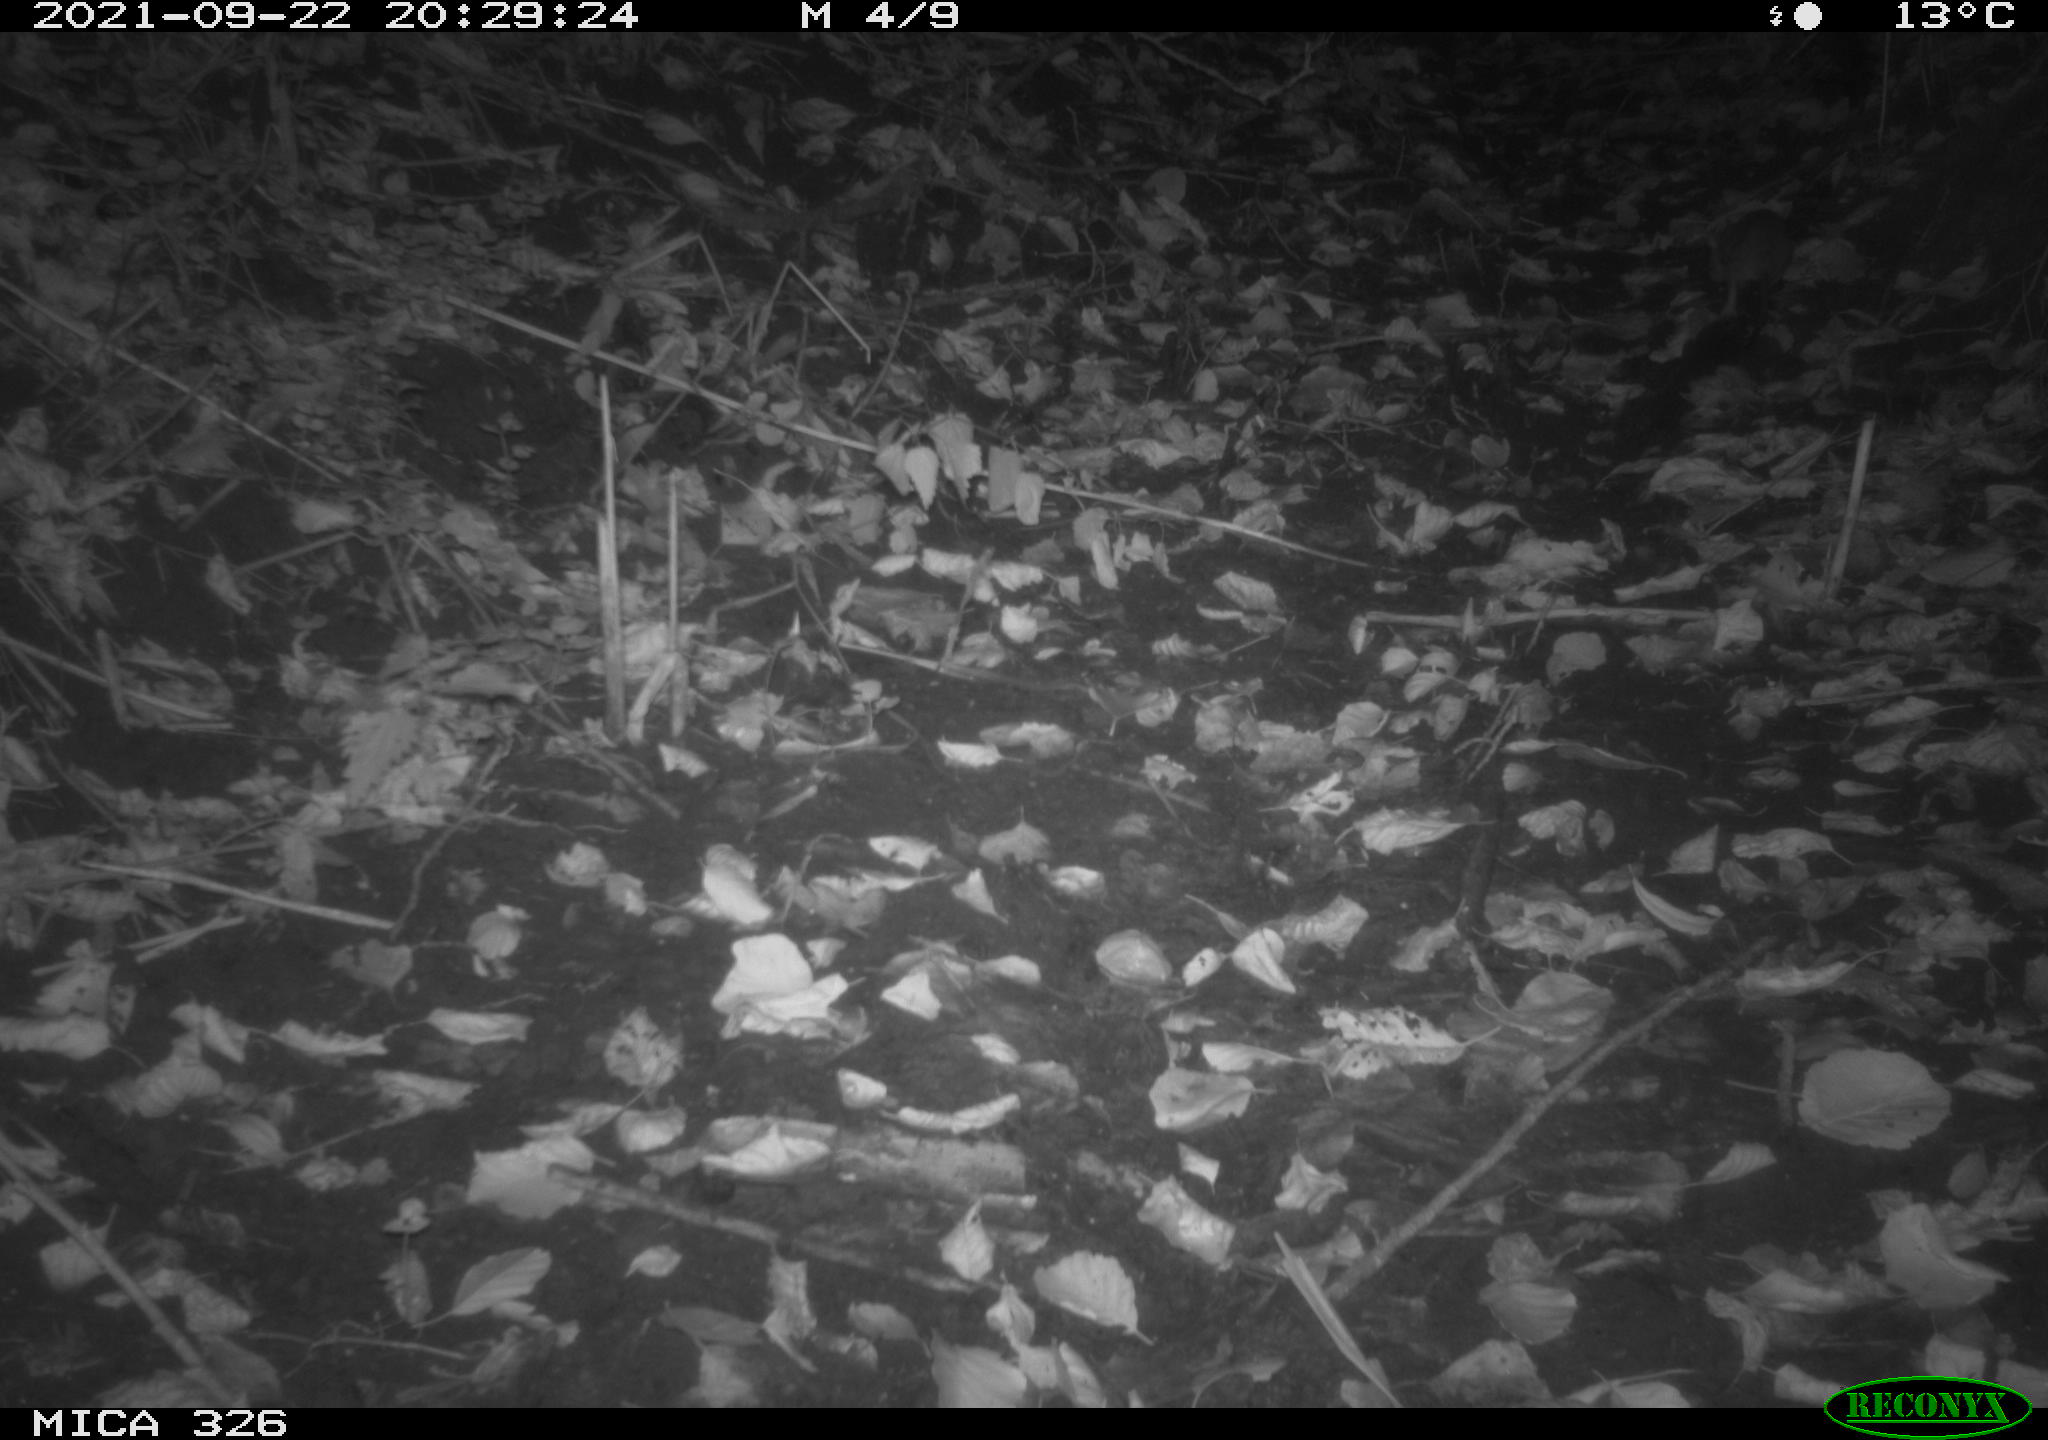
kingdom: Animalia
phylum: Chordata
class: Mammalia
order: Rodentia
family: Muridae
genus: Rattus
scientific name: Rattus norvegicus
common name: Brown rat
